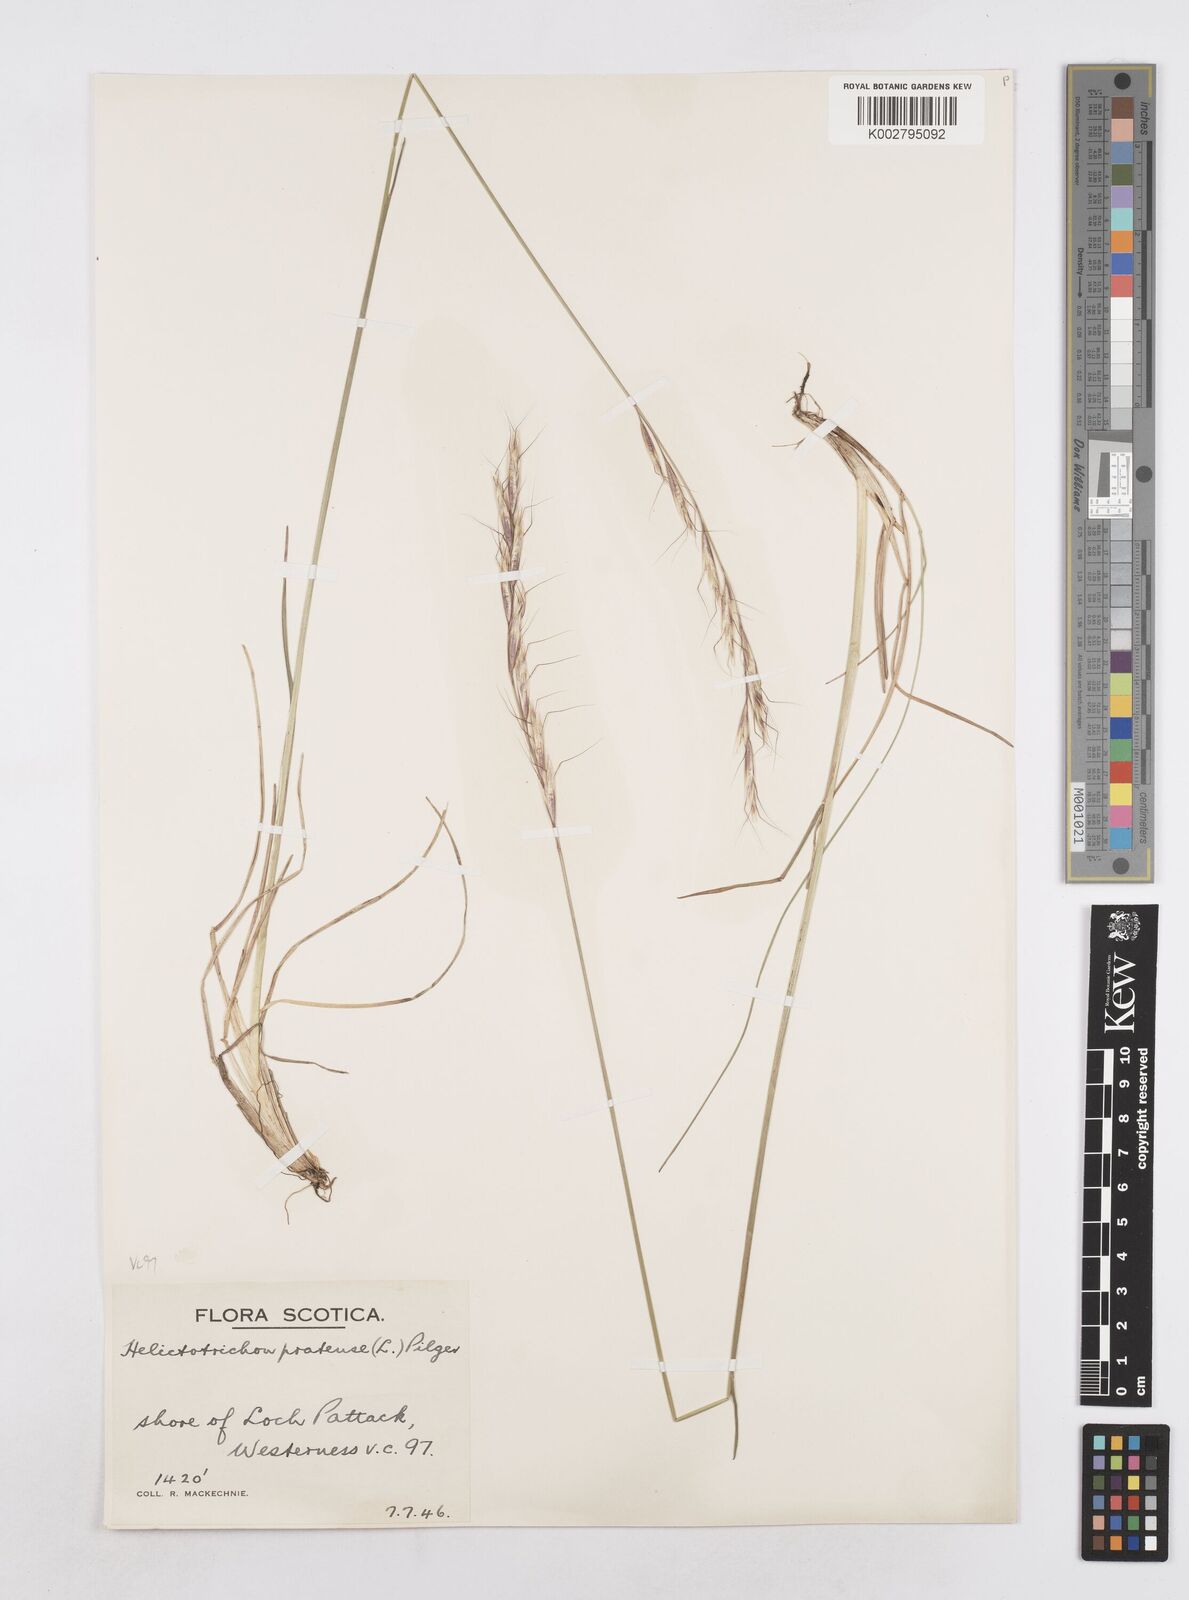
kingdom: Plantae
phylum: Tracheophyta
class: Liliopsida
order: Poales
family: Poaceae
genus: Helictochloa
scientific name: Helictochloa pratensis
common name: Meadow oat grass
